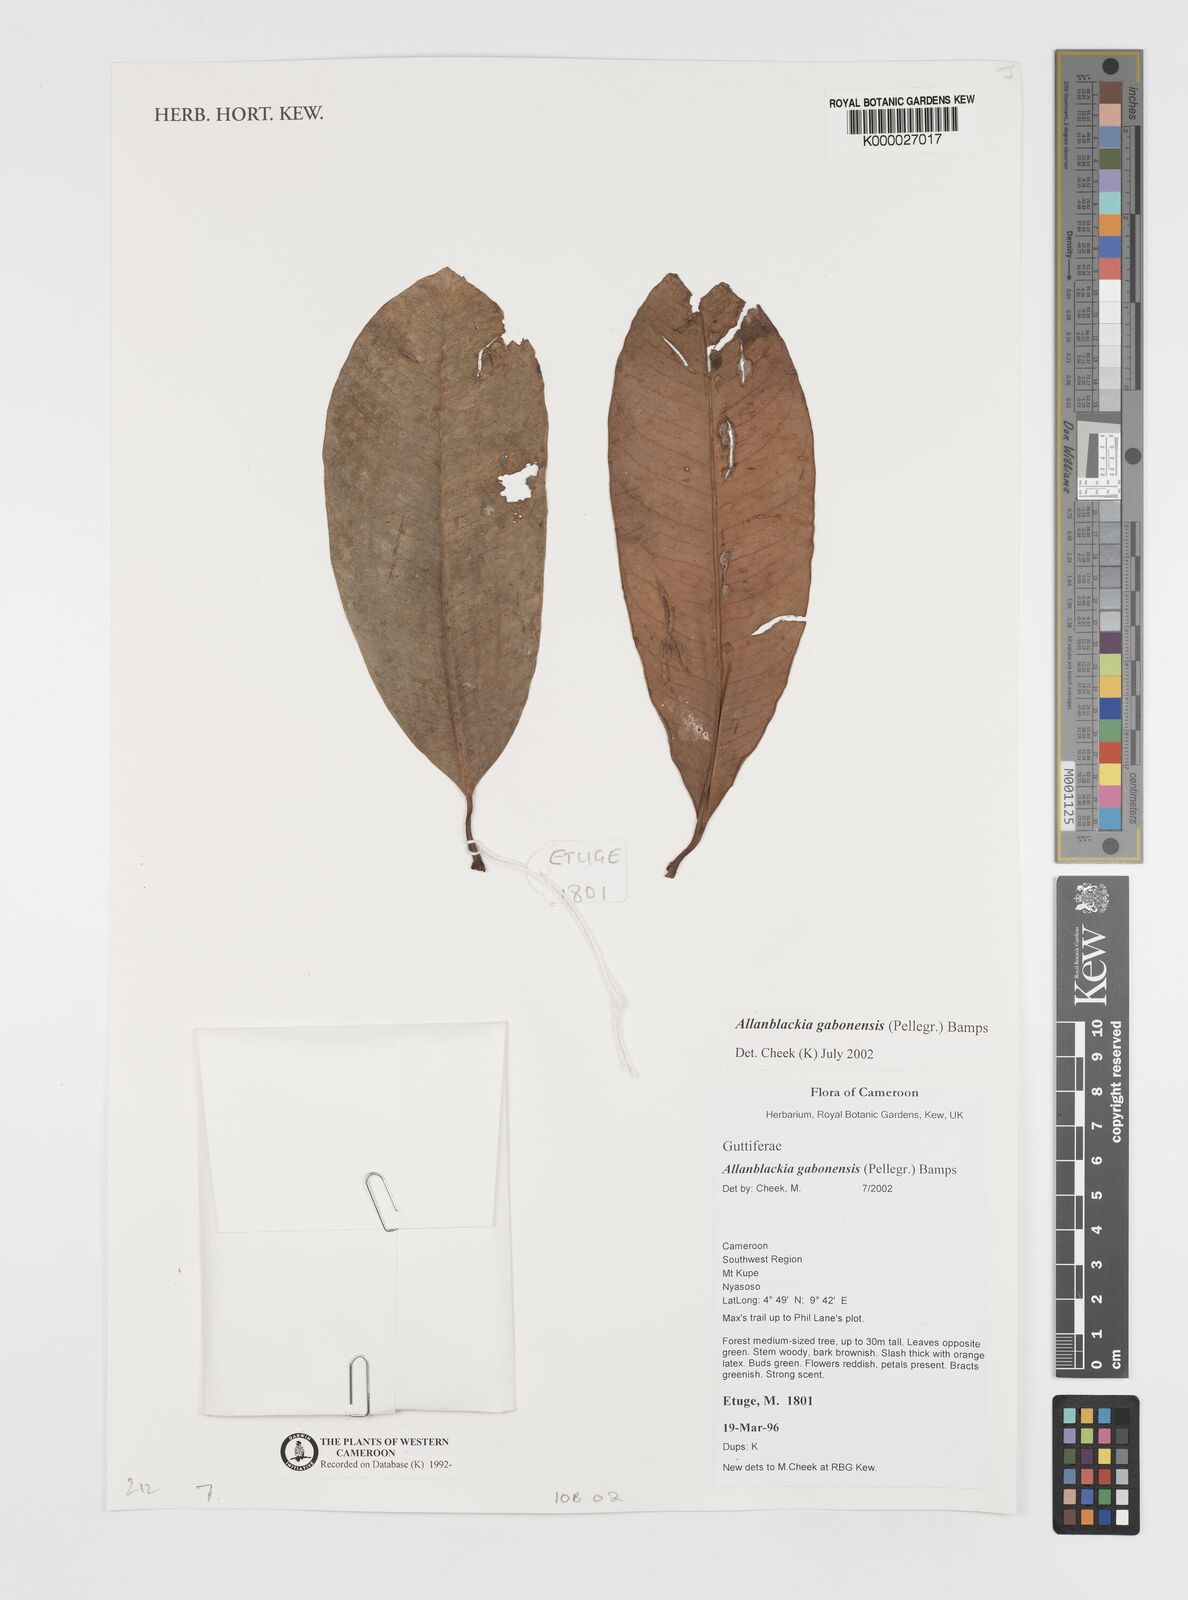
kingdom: Plantae
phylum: Tracheophyta
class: Magnoliopsida
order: Malpighiales
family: Clusiaceae
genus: Allanblackia
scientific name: Allanblackia gabonensis
